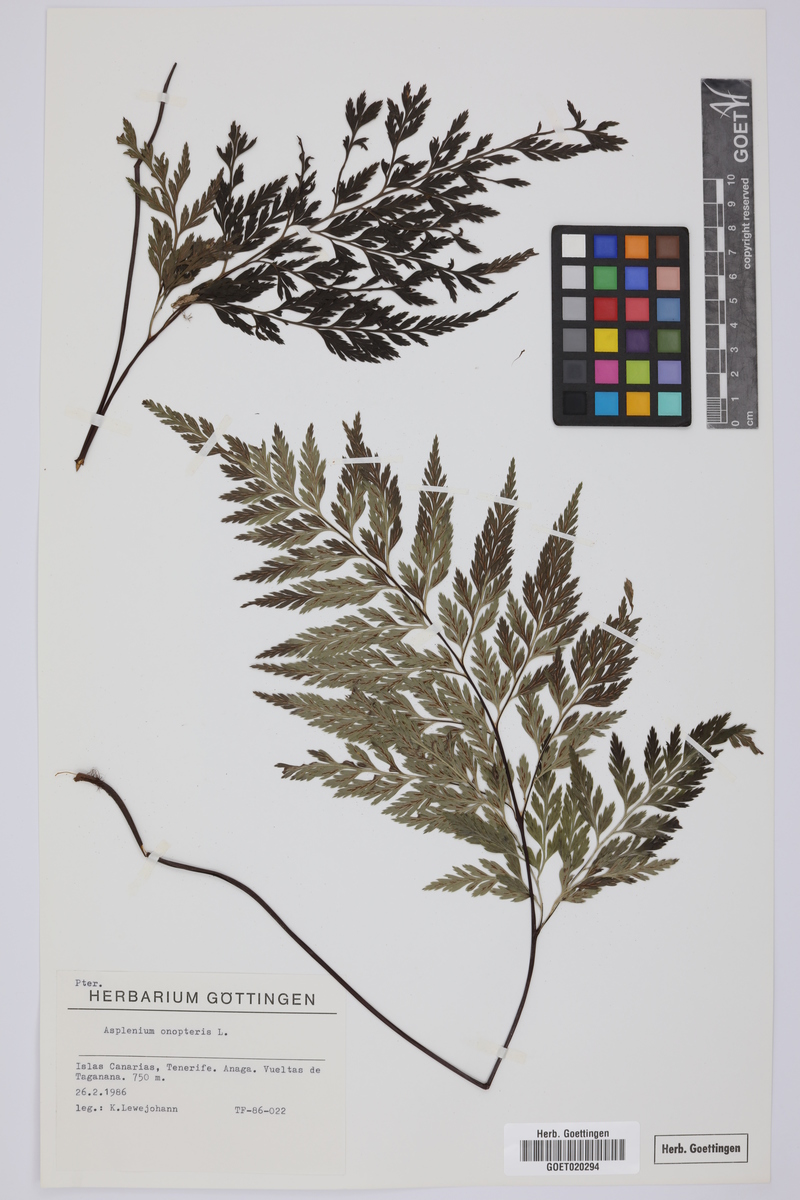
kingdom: Plantae
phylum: Tracheophyta
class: Polypodiopsida
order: Polypodiales
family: Aspleniaceae
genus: Asplenium
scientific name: Asplenium onopteris
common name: Irish spleenwort
